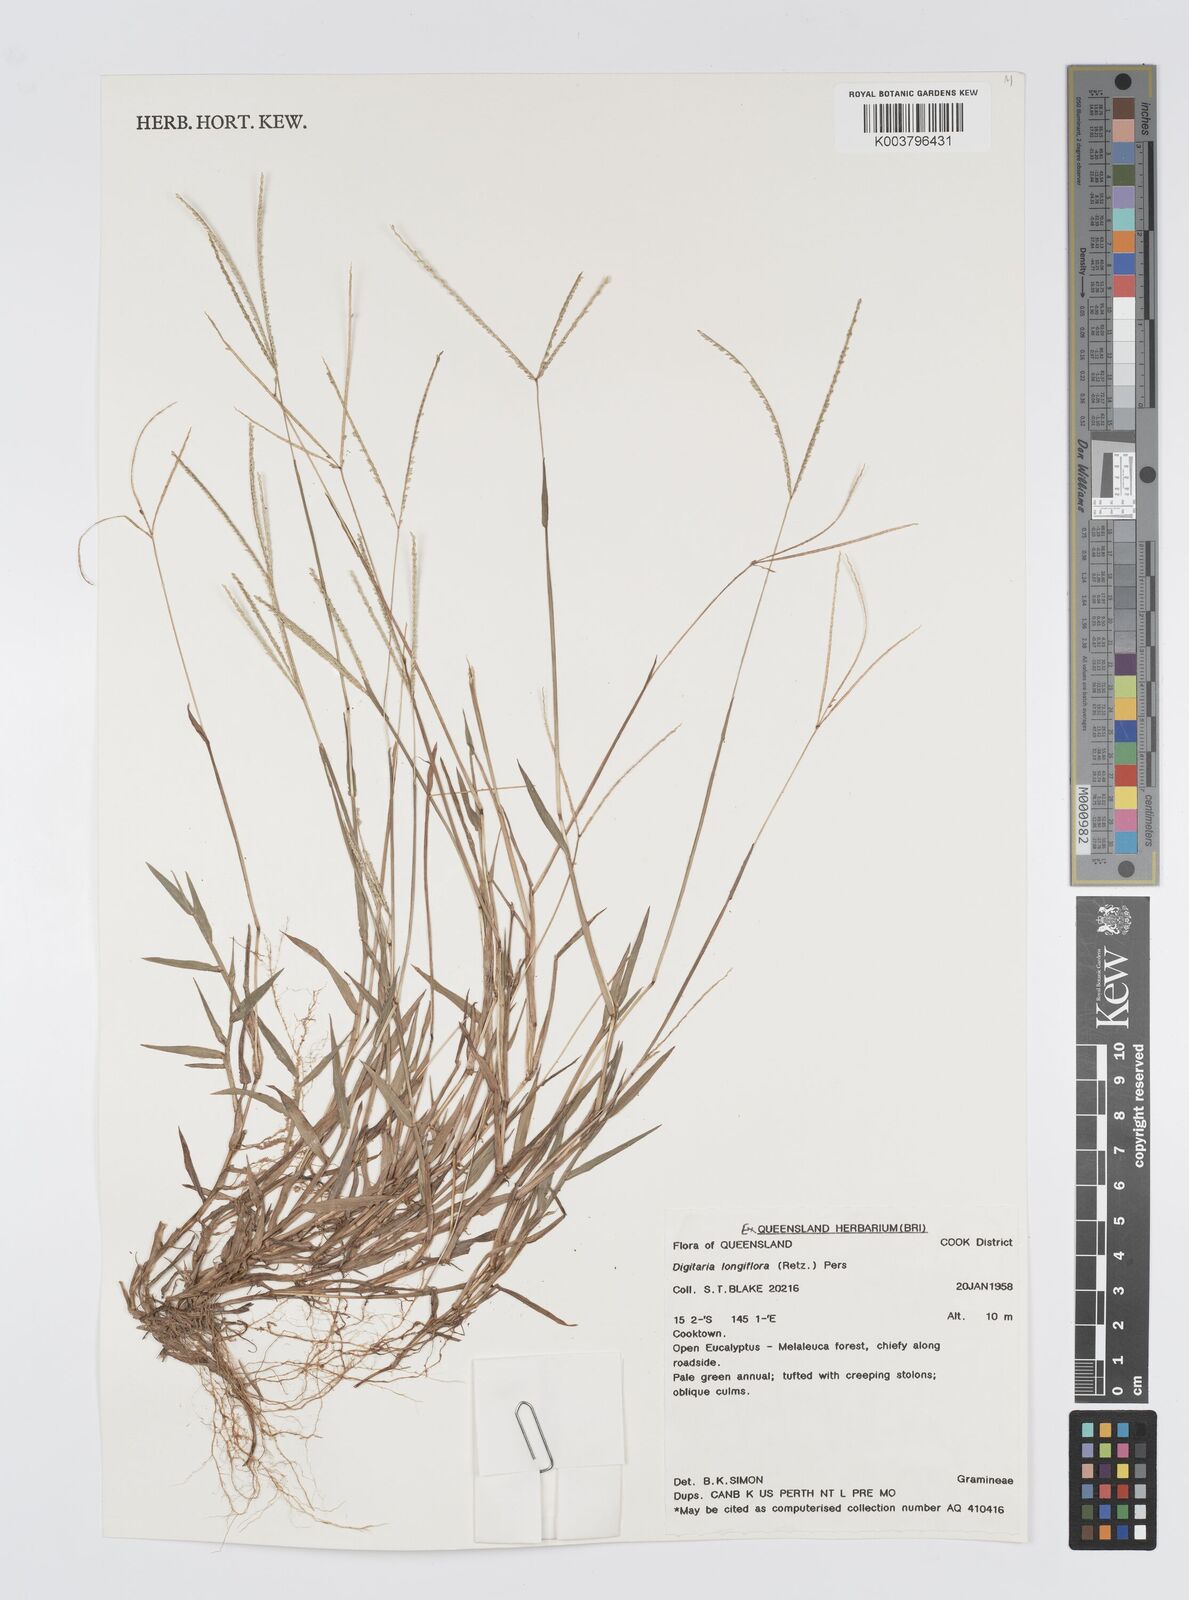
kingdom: Plantae
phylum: Tracheophyta
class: Liliopsida
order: Poales
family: Poaceae
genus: Digitaria
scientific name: Digitaria longiflora
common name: Wire crabgrass
